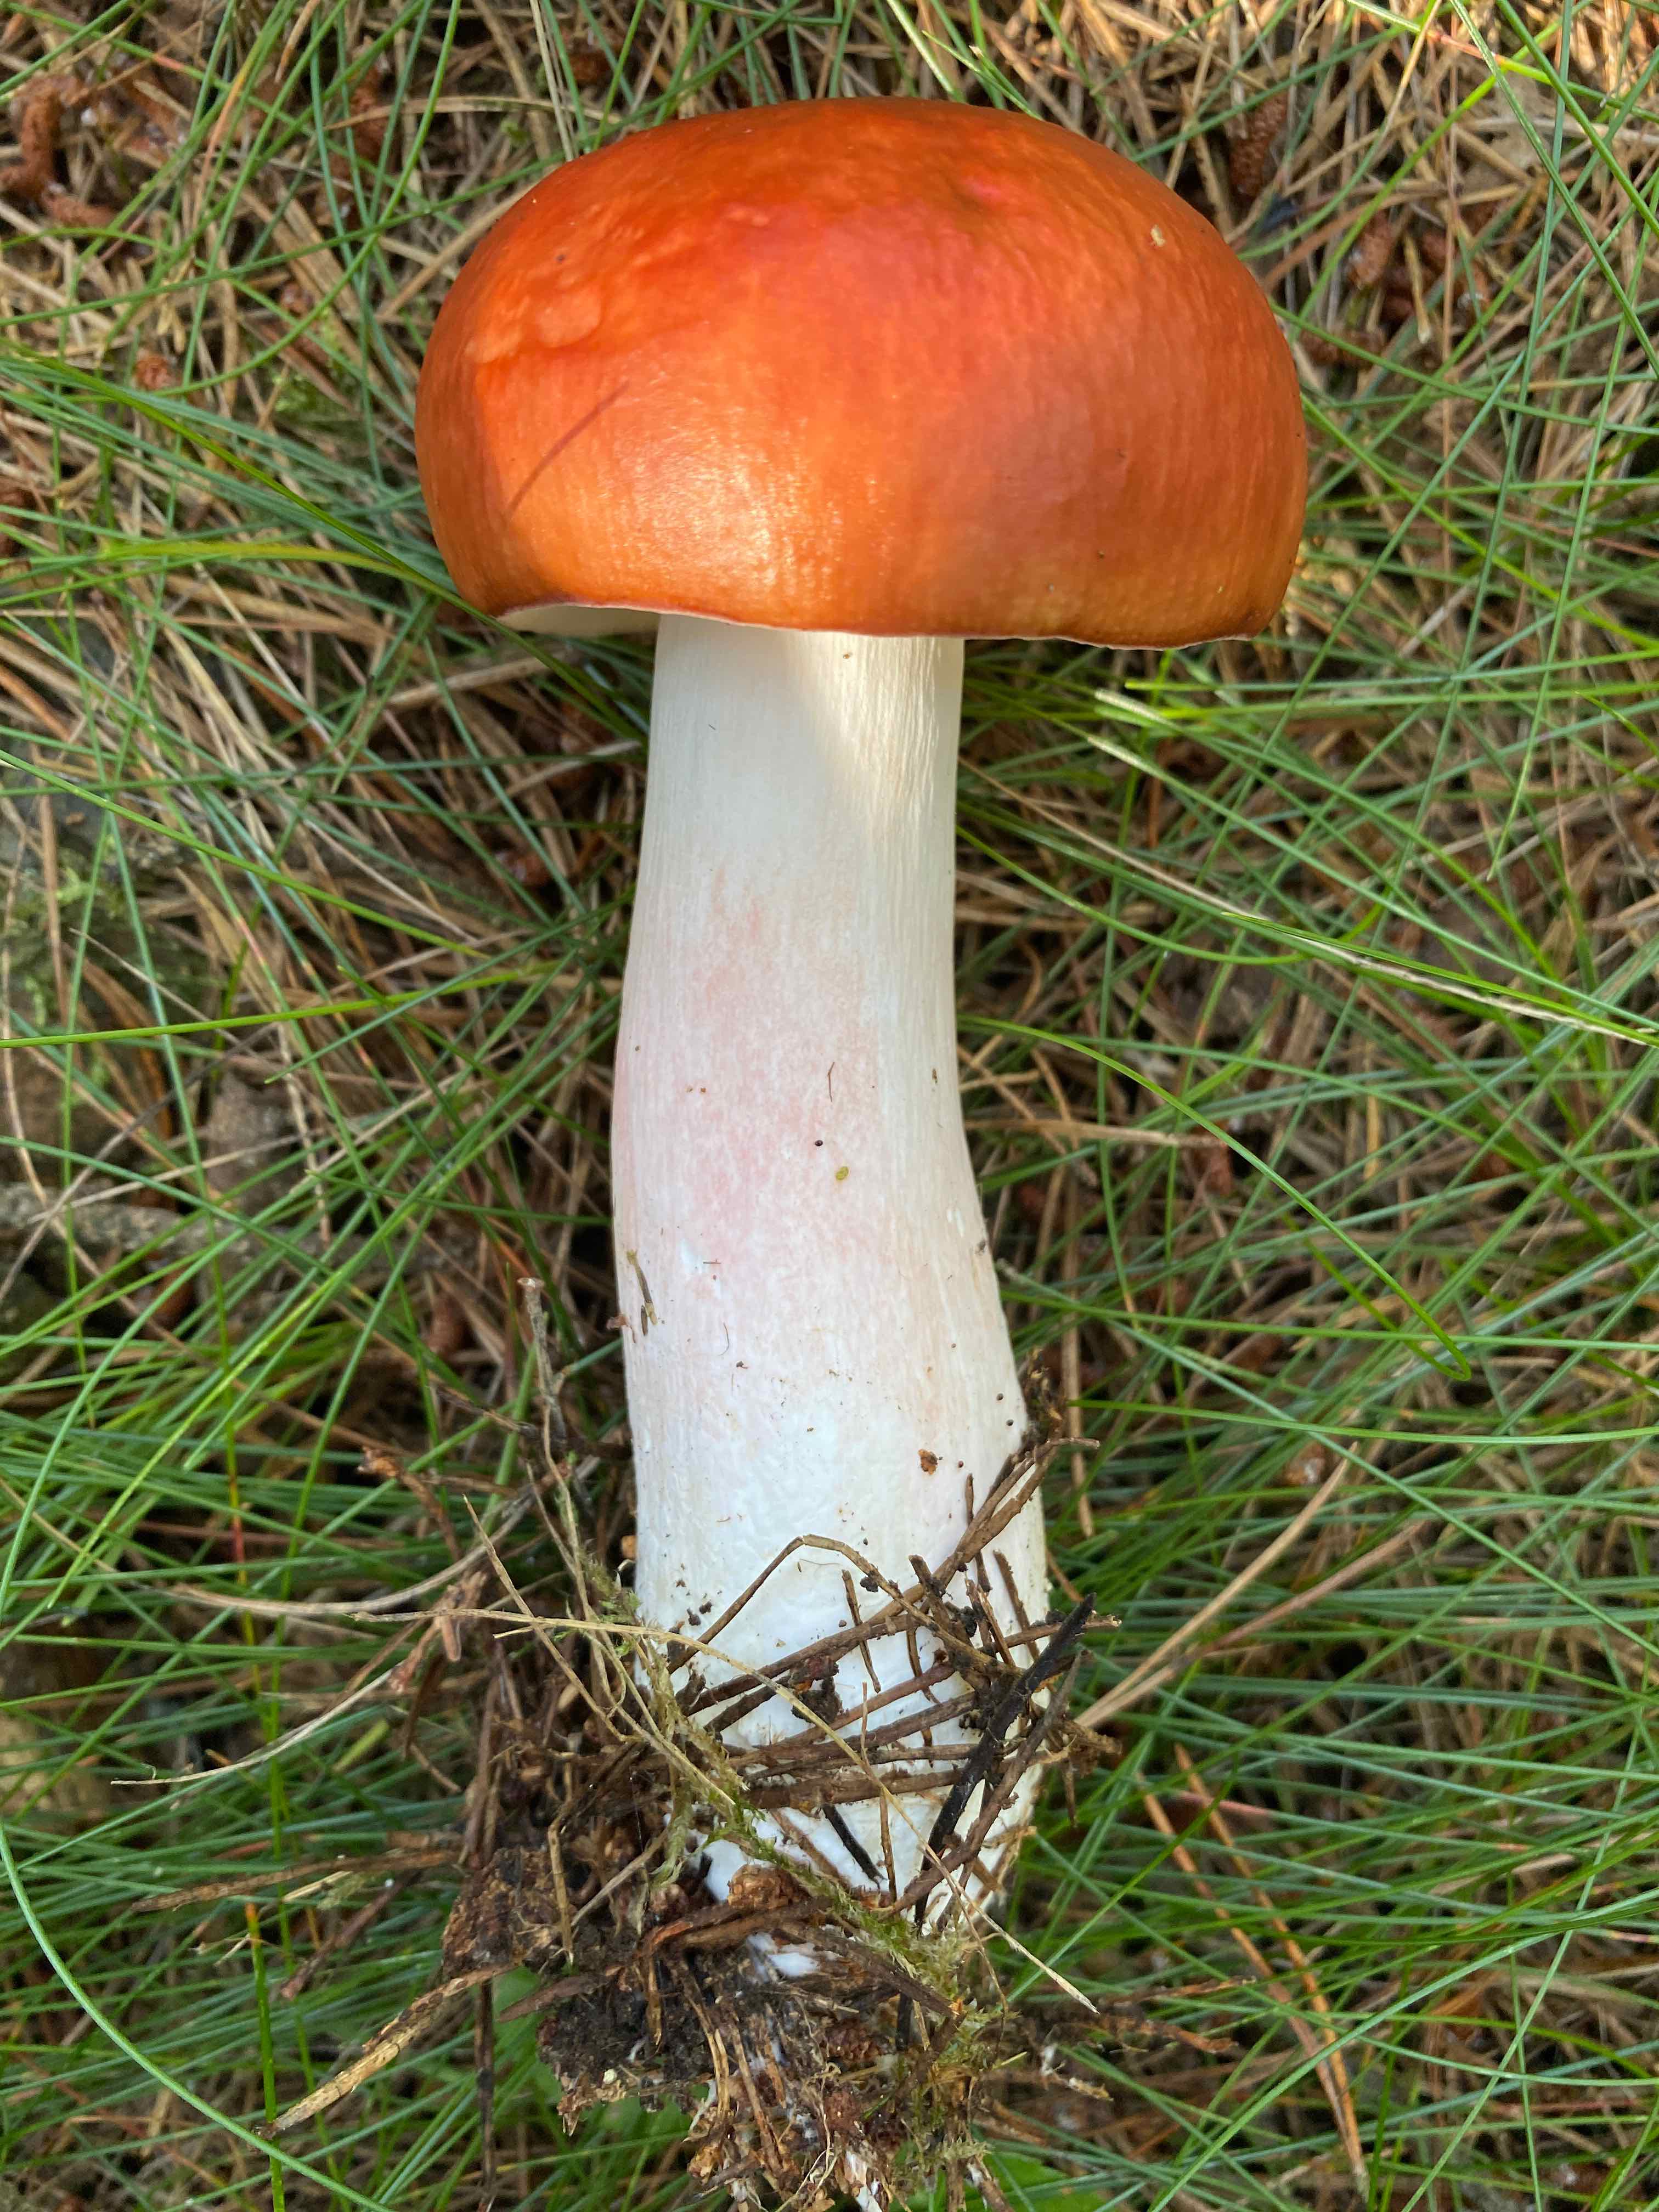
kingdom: Fungi
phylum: Basidiomycota
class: Agaricomycetes
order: Russulales
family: Russulaceae
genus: Russula
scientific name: Russula paludosa
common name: prægtig skørhat
